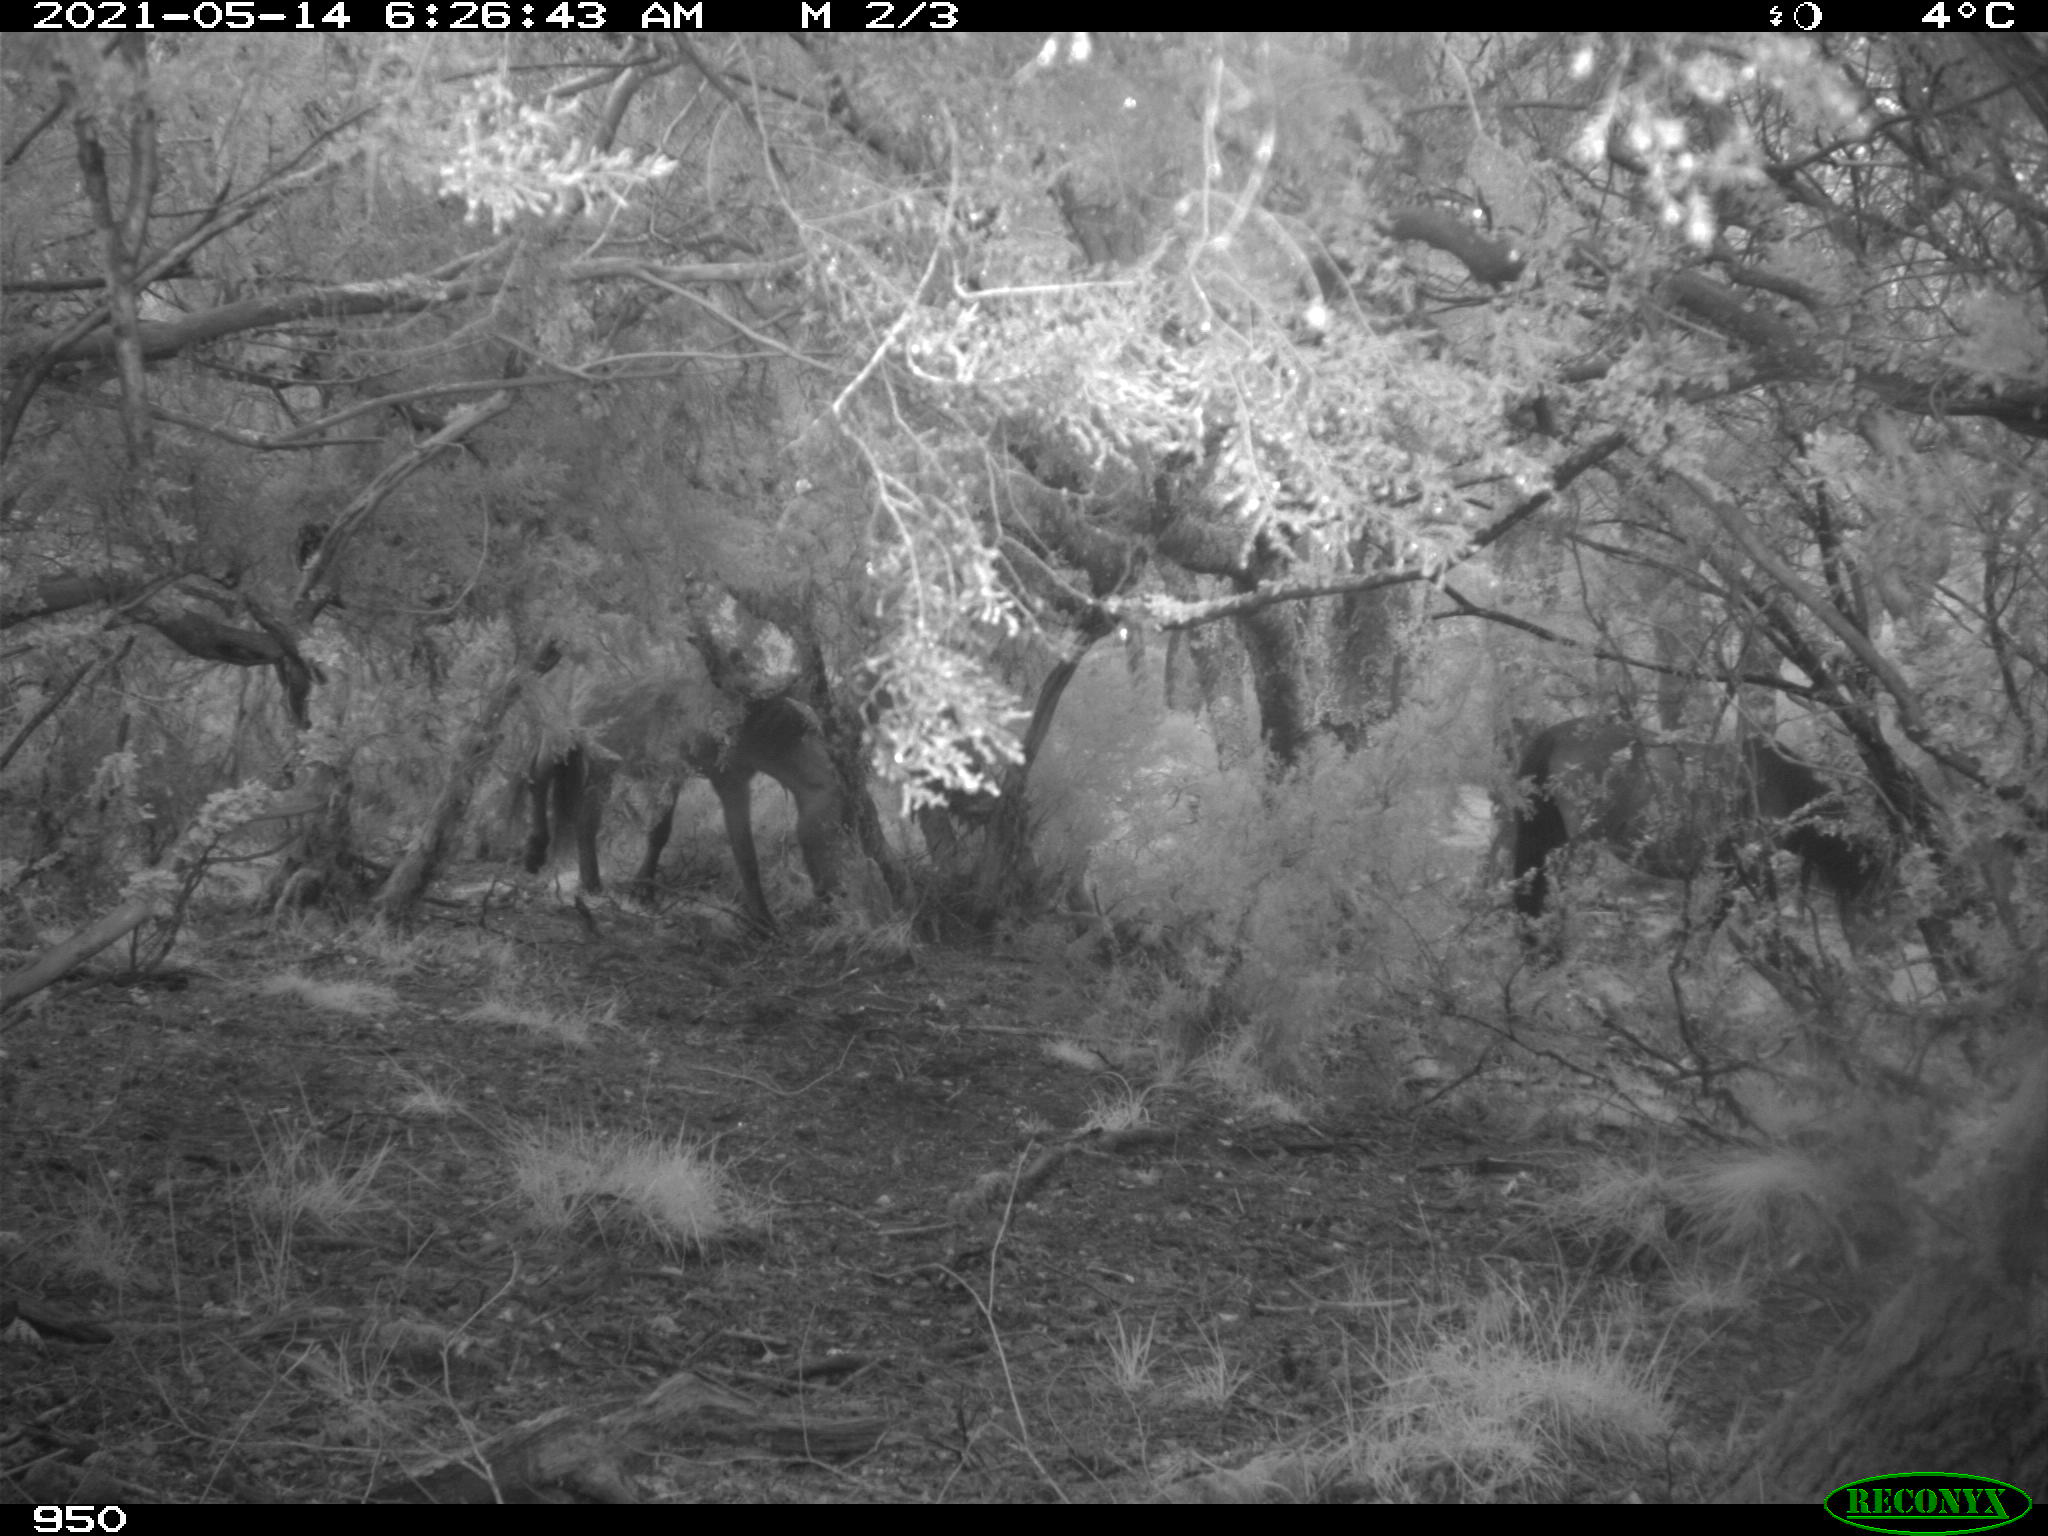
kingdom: Animalia
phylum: Chordata
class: Mammalia
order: Perissodactyla
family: Equidae
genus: Equus
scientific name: Equus caballus
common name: Horse
